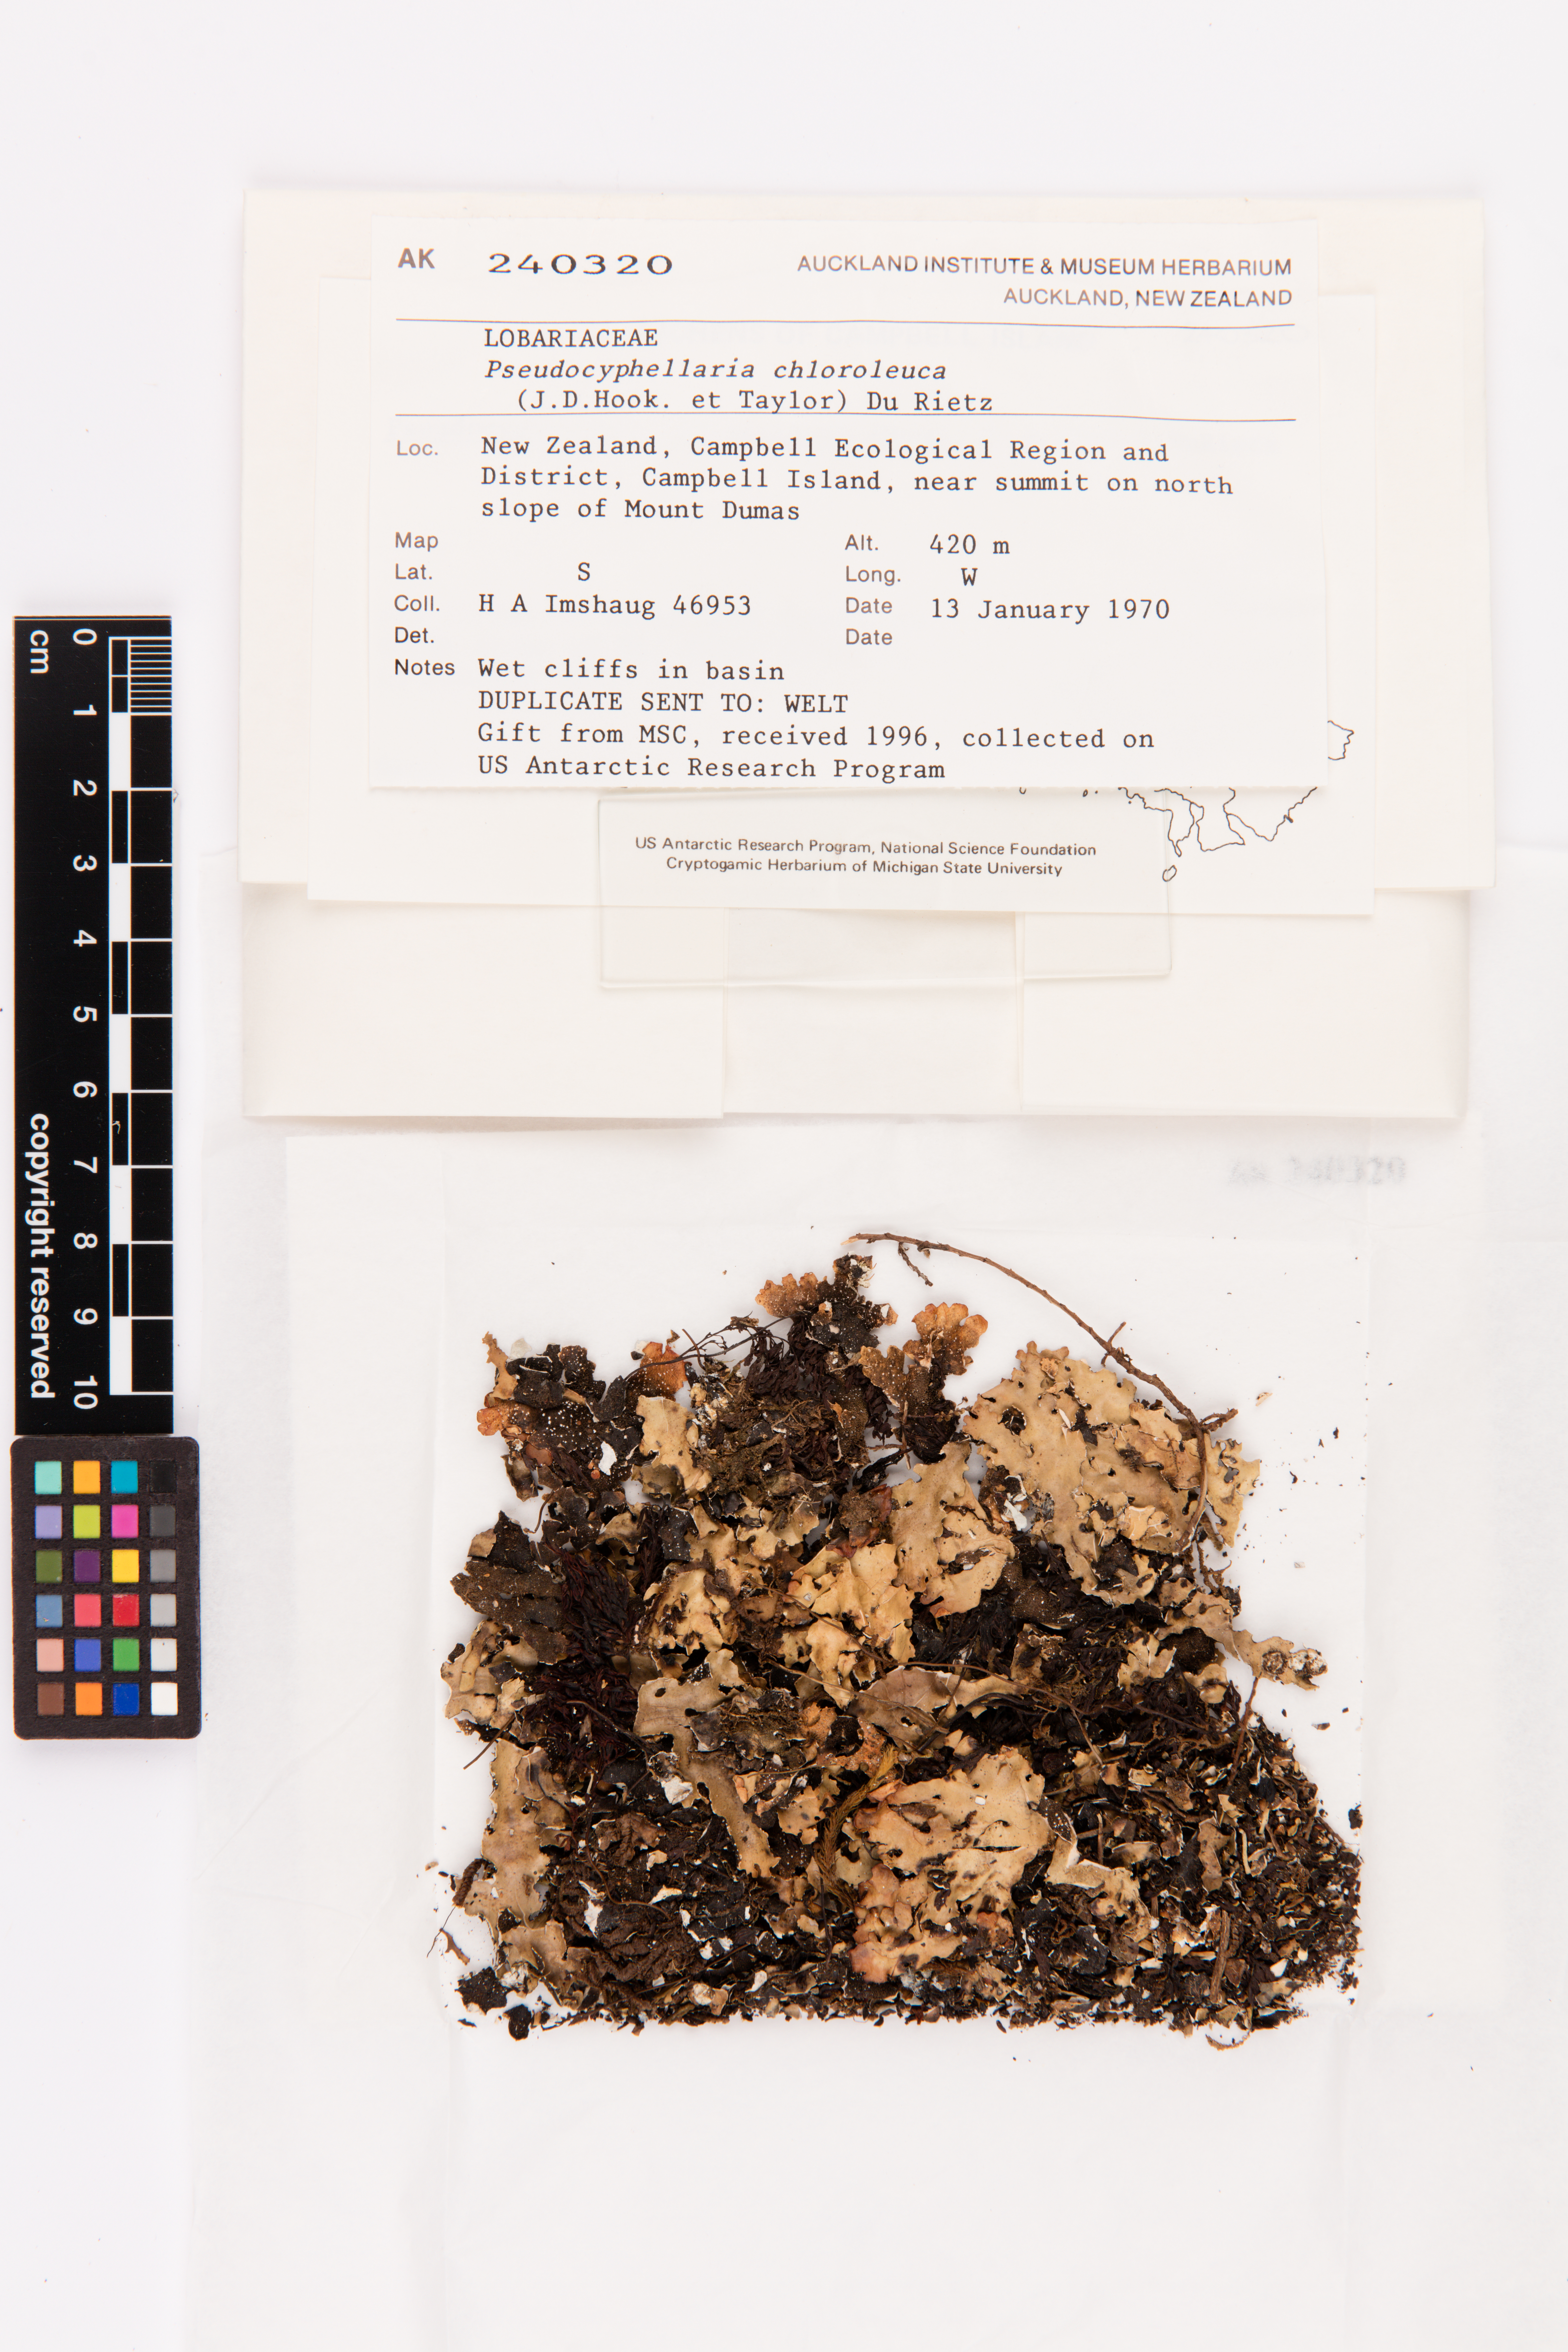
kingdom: Fungi
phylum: Ascomycota
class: Lecanoromycetes
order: Peltigerales
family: Lobariaceae
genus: Pseudocyphellaria
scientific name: Pseudocyphellaria chloroleuca
